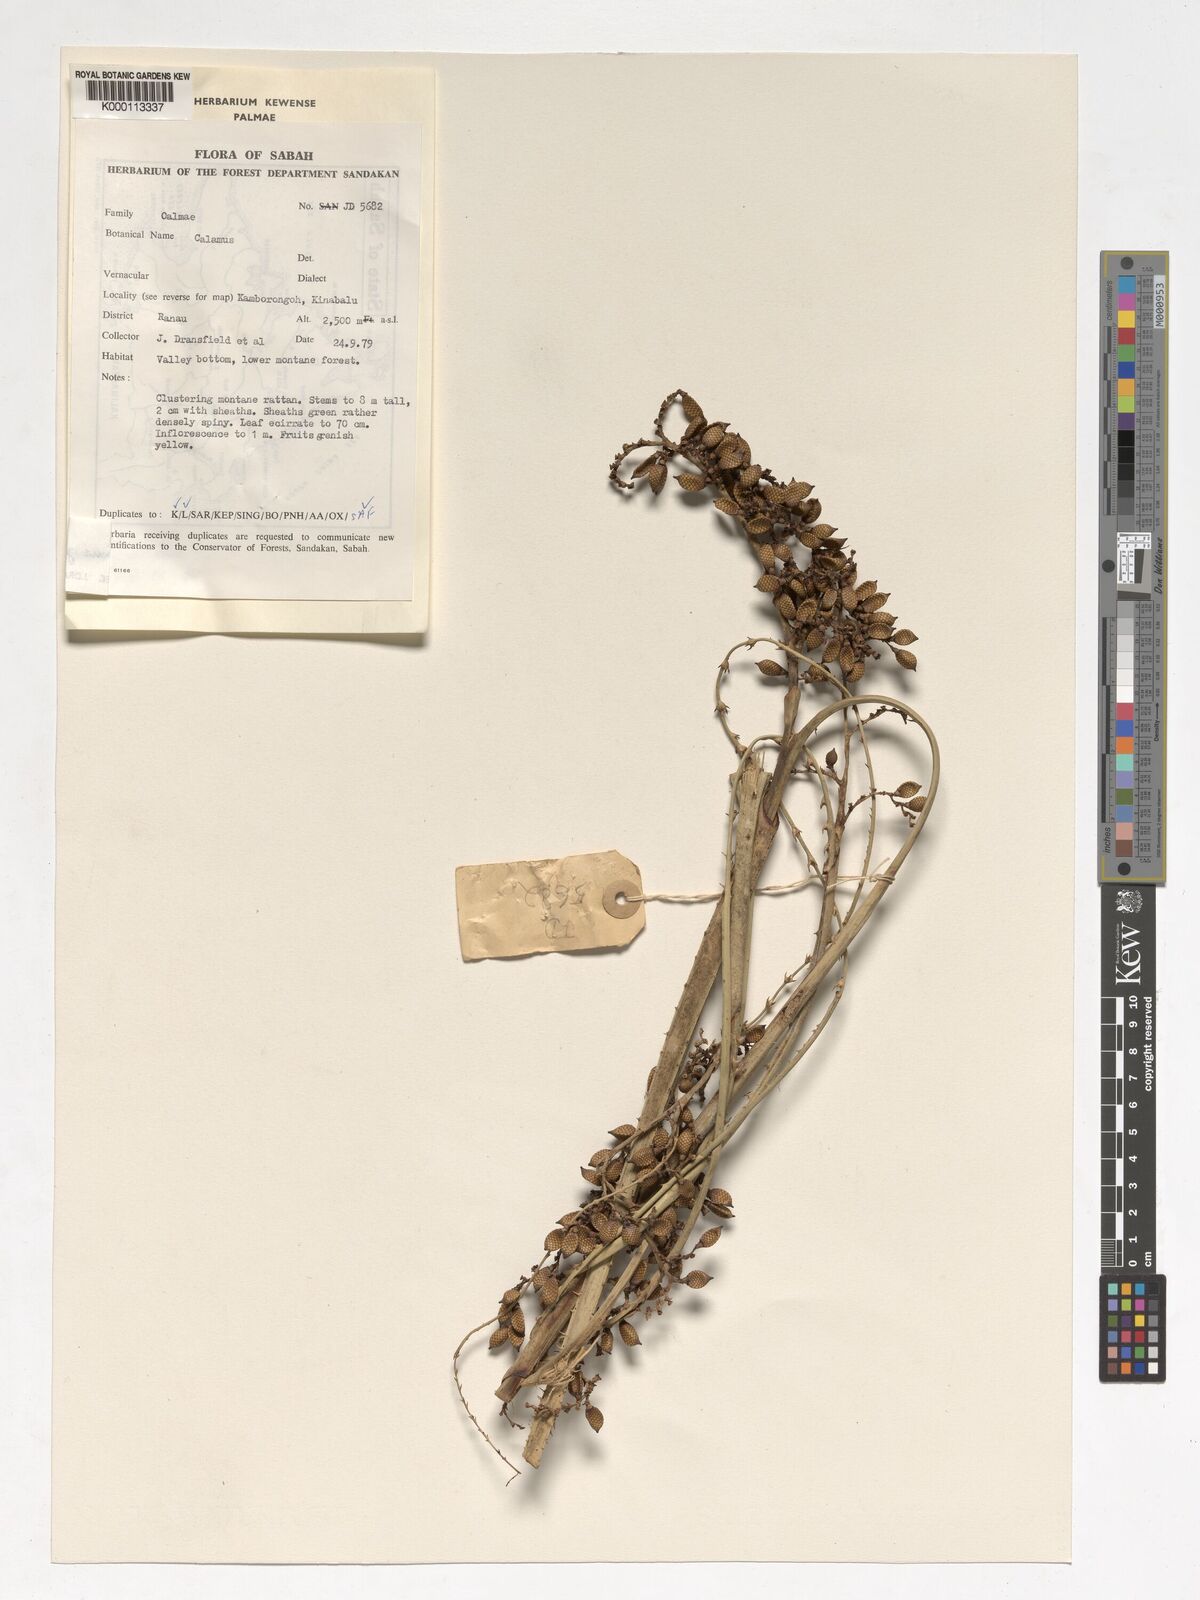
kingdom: Plantae
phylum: Tracheophyta
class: Liliopsida
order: Arecales
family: Arecaceae
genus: Calamus
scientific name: Calamus gibbsianus
